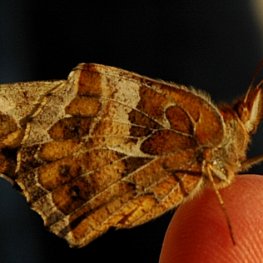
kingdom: Animalia
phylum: Arthropoda
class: Insecta
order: Lepidoptera
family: Nymphalidae
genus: Euptoieta
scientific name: Euptoieta claudia
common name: Variegated Fritillary
